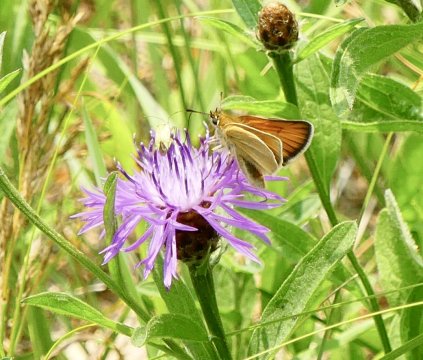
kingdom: Animalia
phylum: Arthropoda
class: Insecta
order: Lepidoptera
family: Hesperiidae
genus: Thymelicus
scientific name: Thymelicus lineola
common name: European Skipper
